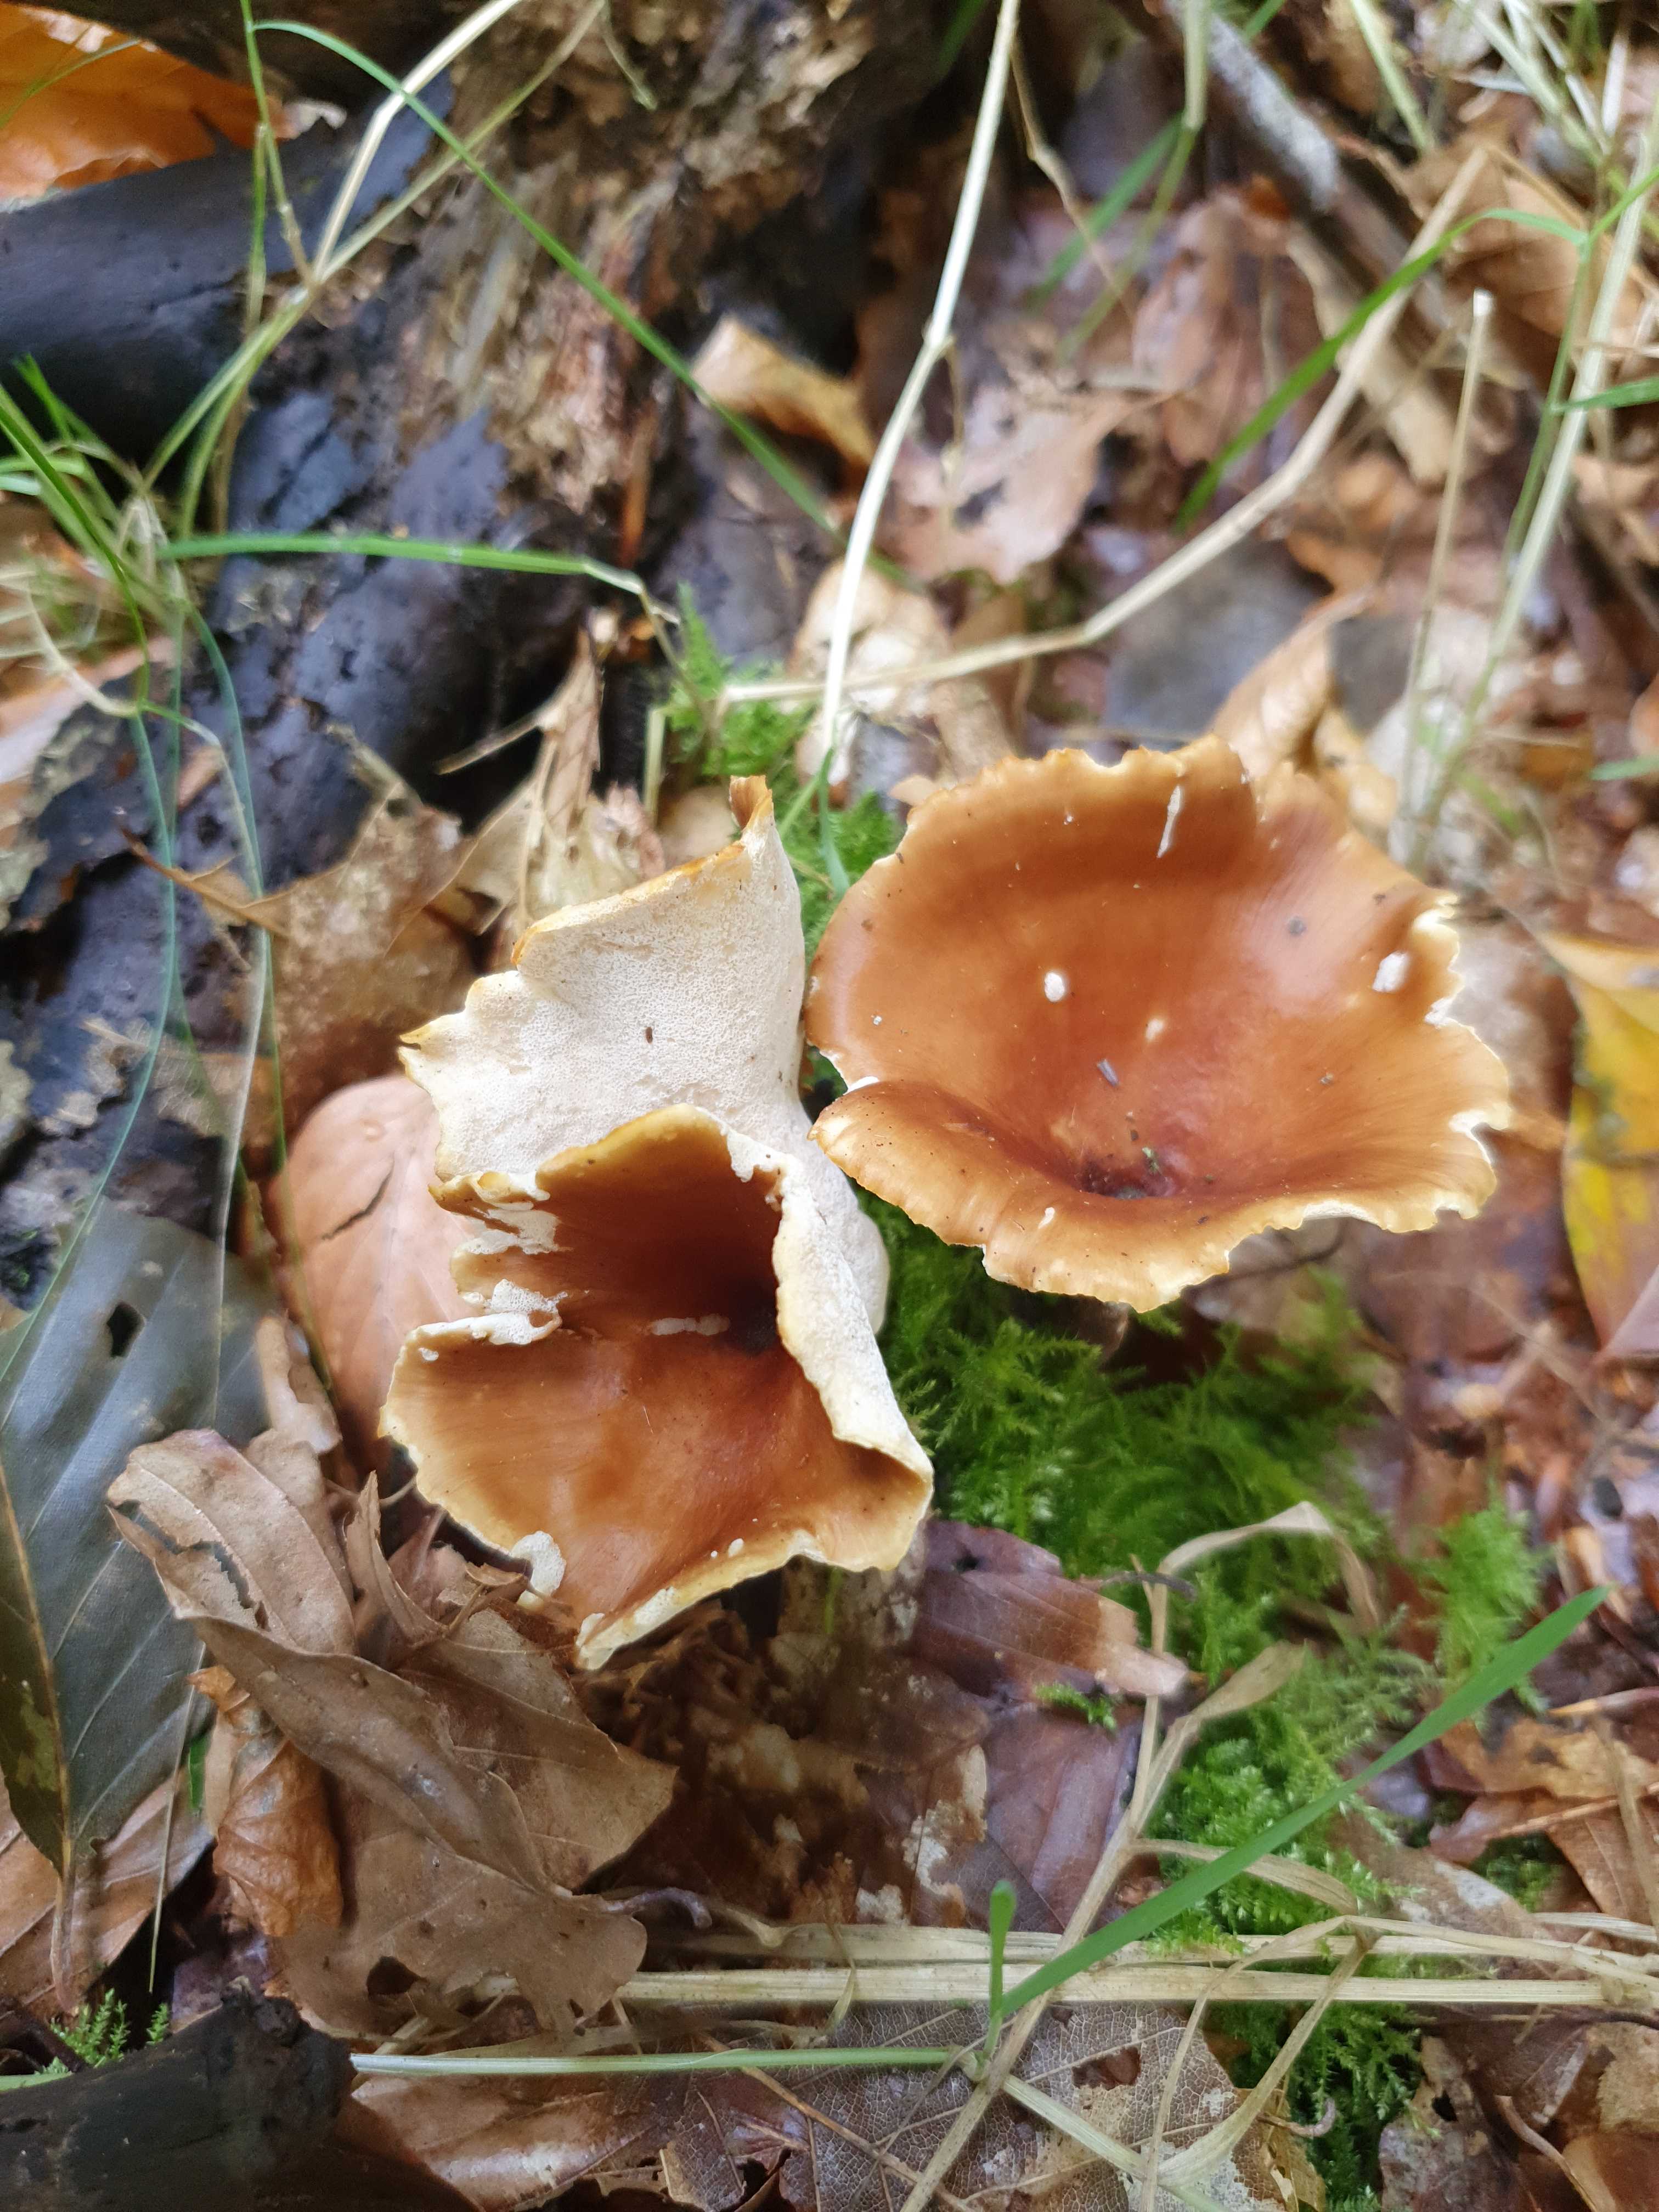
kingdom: Fungi
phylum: Basidiomycota
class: Agaricomycetes
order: Polyporales
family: Polyporaceae
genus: Picipes
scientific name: Picipes badius
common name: kastaniebrun stilkporesvamp
